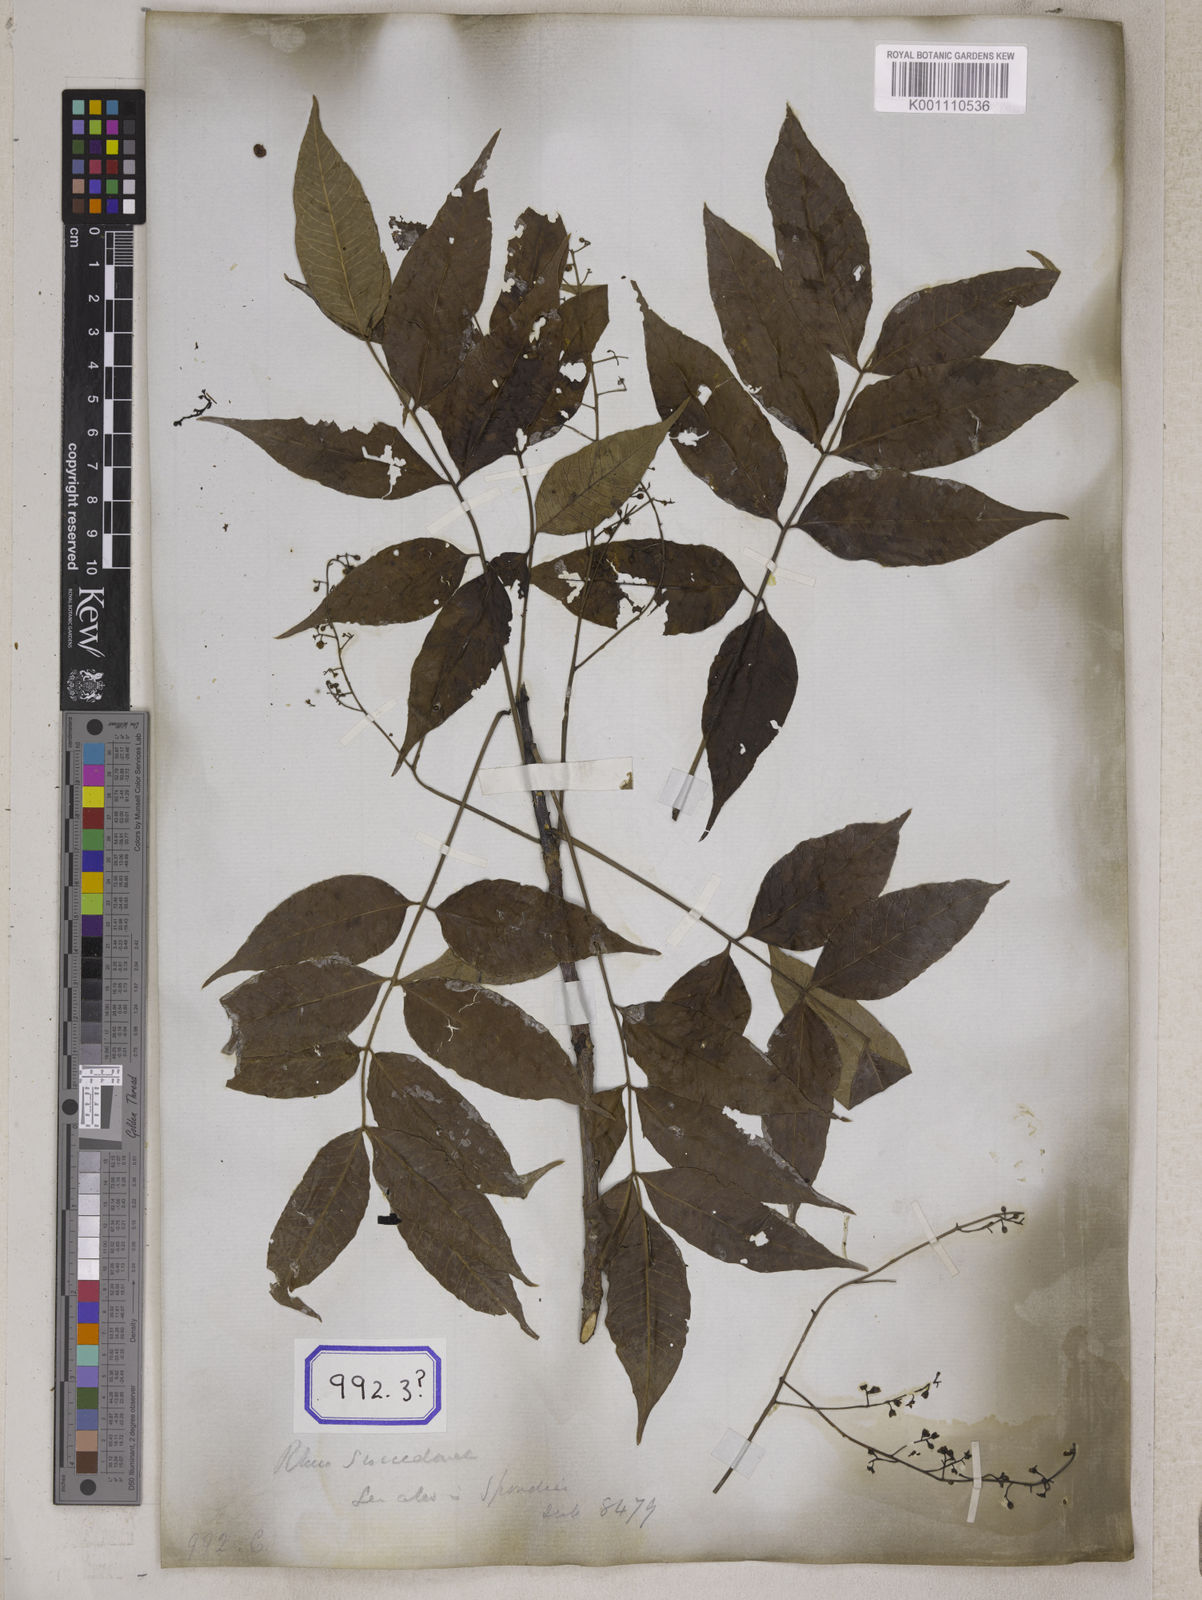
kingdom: Plantae
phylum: Tracheophyta
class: Magnoliopsida
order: Sapindales
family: Anacardiaceae
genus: Toxicodendron
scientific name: Toxicodendron succedaneum
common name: Wax tree
